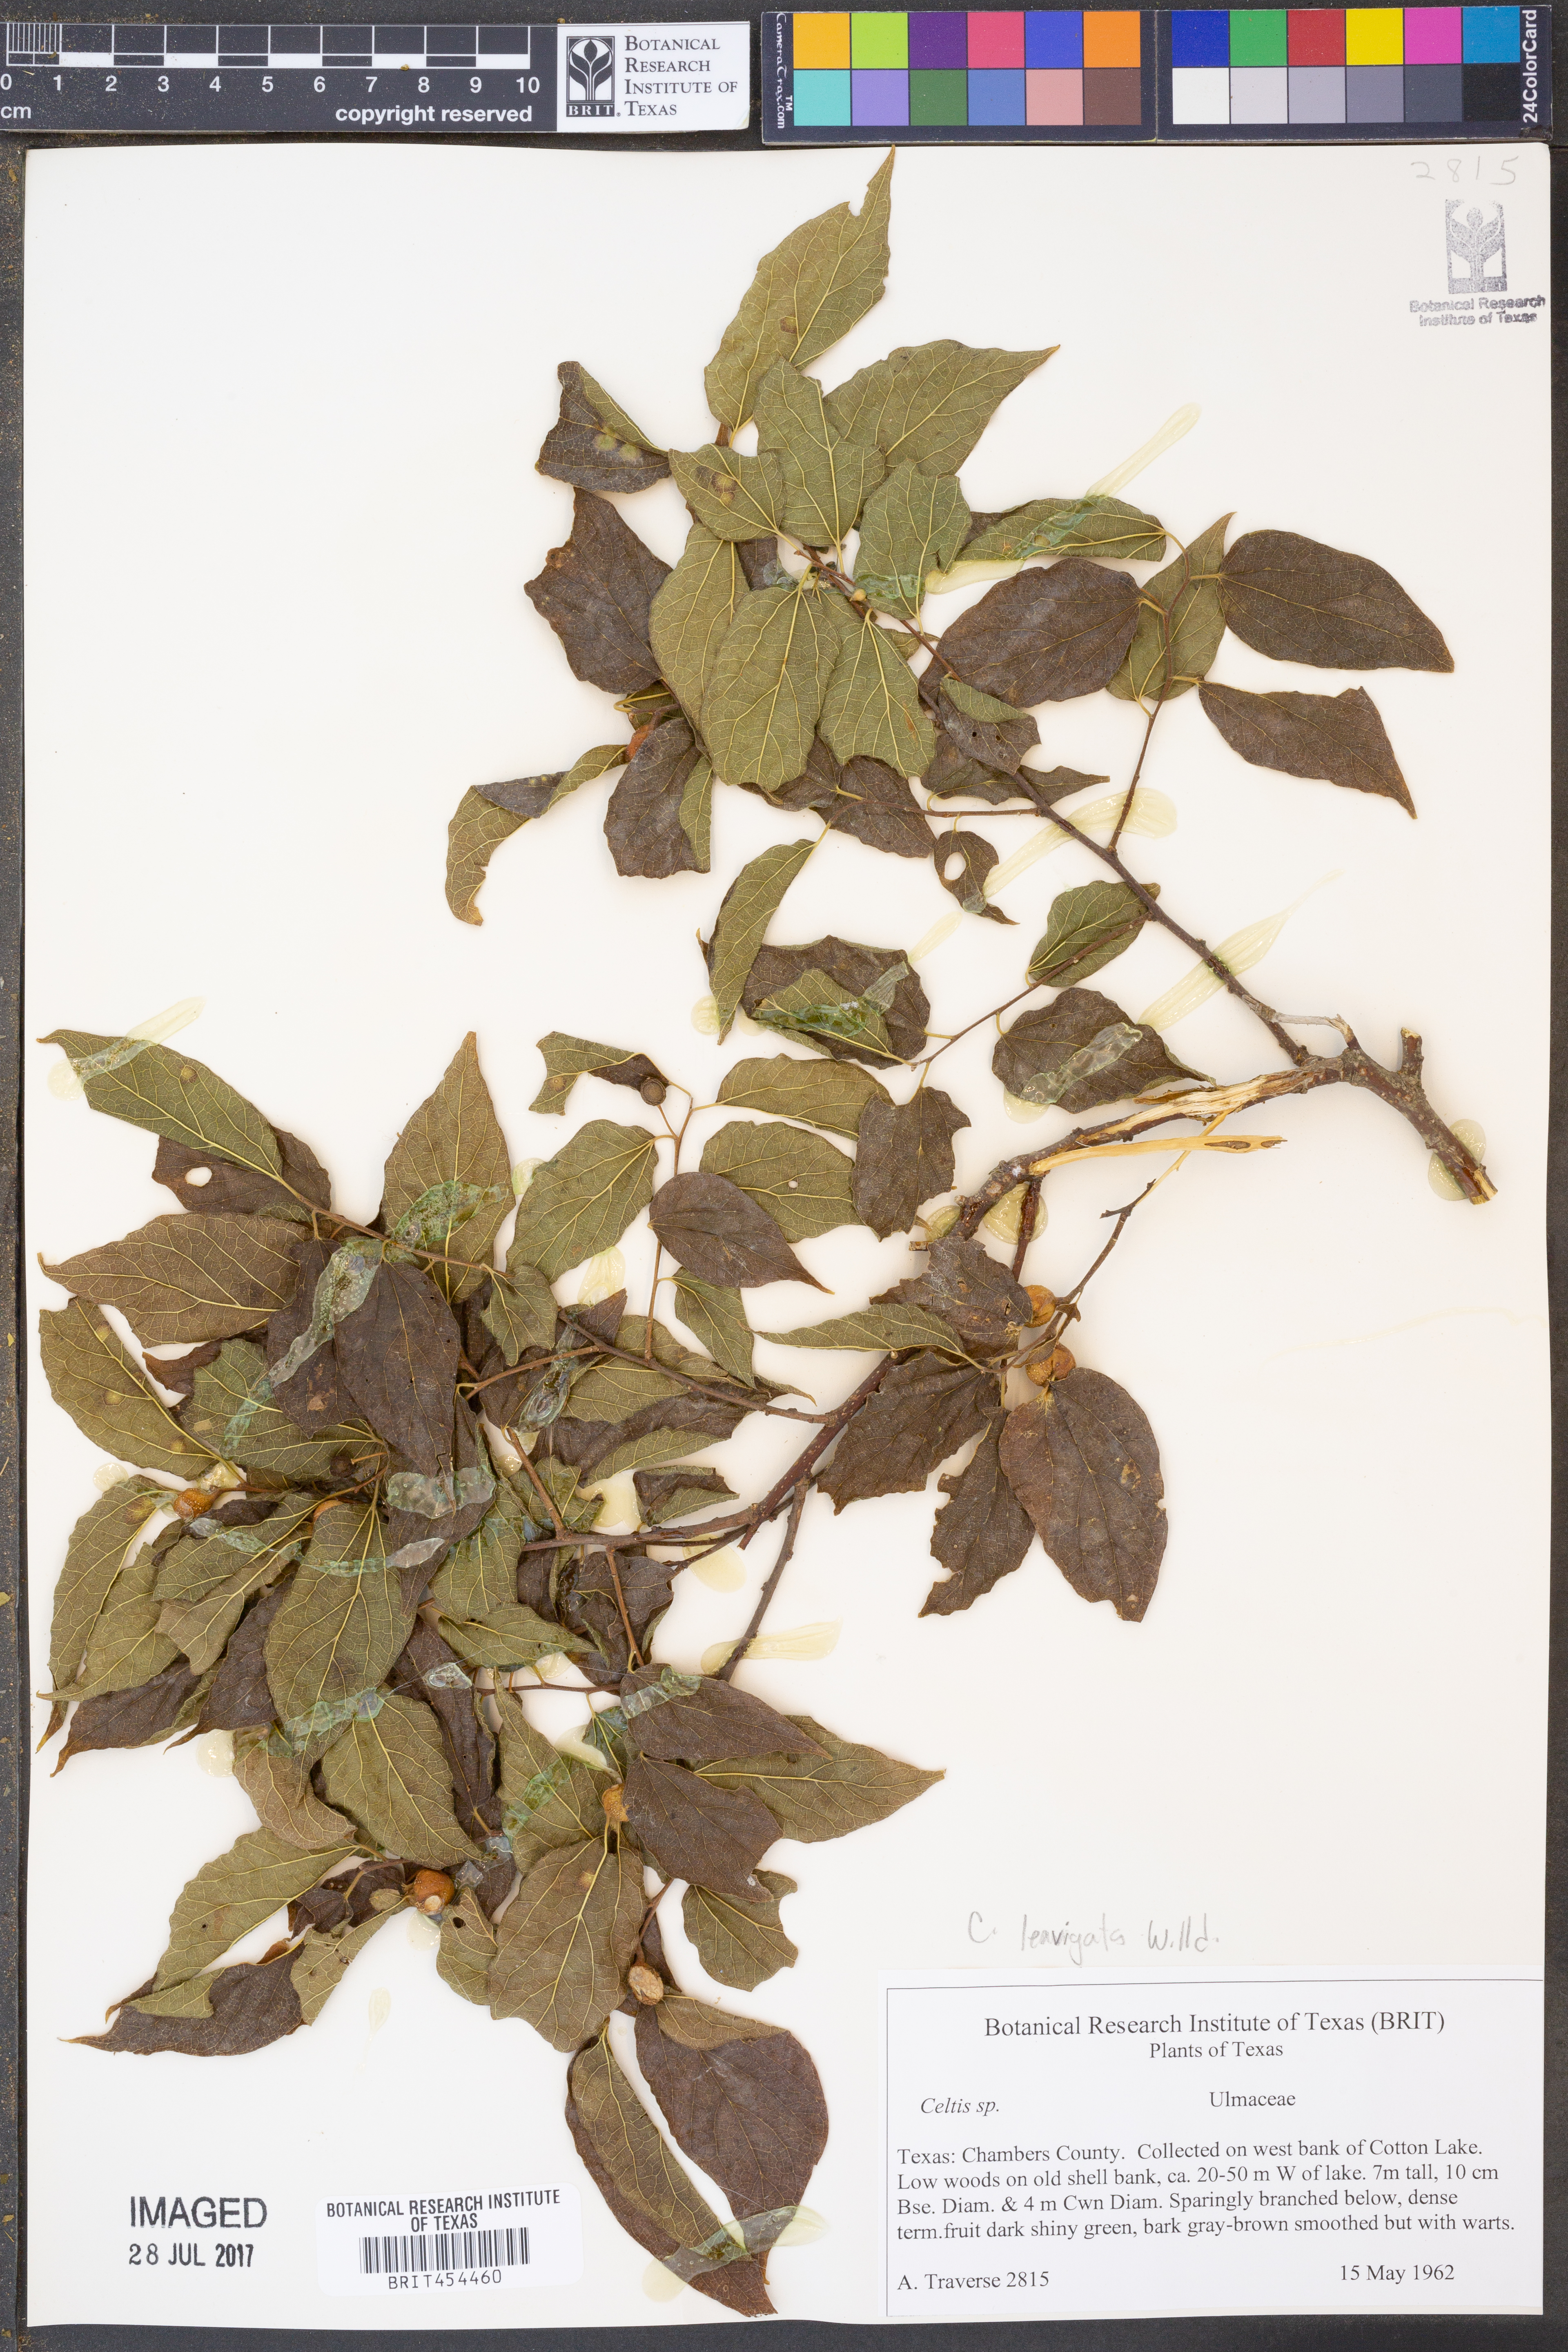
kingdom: Plantae
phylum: Tracheophyta
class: Magnoliopsida
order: Rosales
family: Cannabaceae
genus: Celtis
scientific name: Celtis
